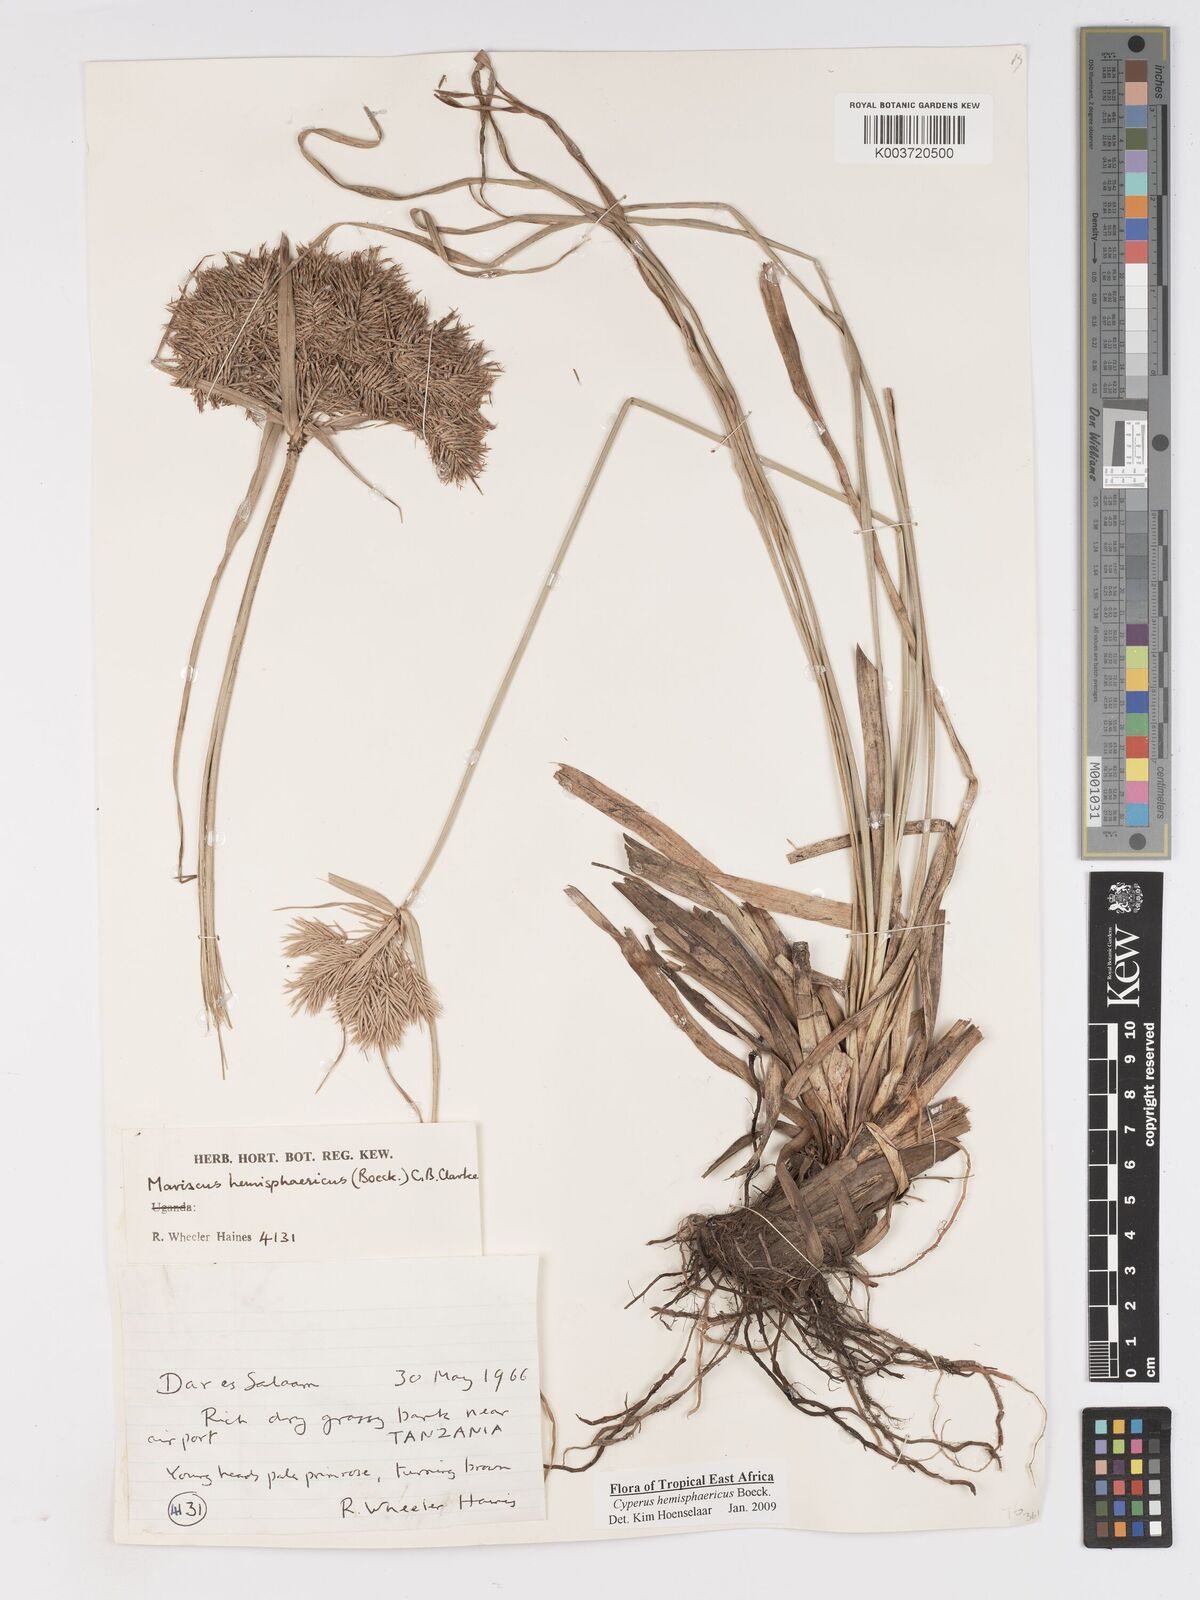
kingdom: Plantae
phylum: Tracheophyta
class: Liliopsida
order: Poales
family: Cyperaceae
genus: Cyperus
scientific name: Cyperus hemisphaericus
